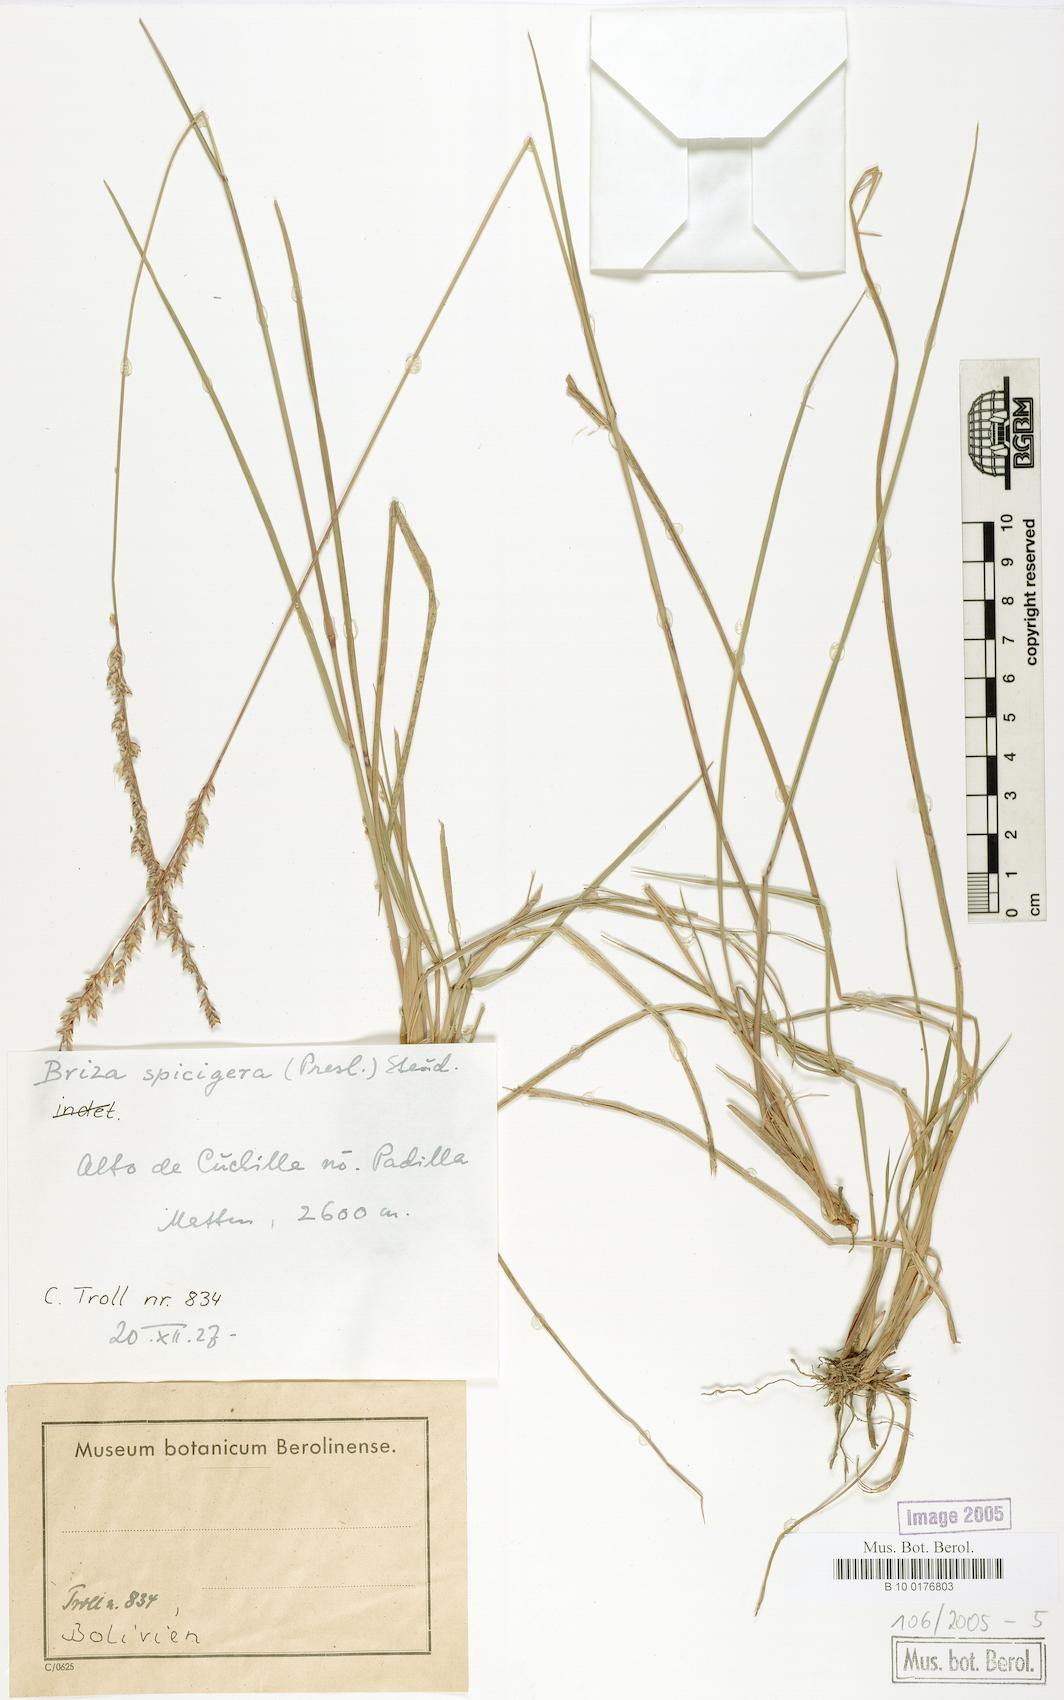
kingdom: Plantae
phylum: Tracheophyta
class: Liliopsida
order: Poales
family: Poaceae
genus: Poidium
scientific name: Poidium uniolae
